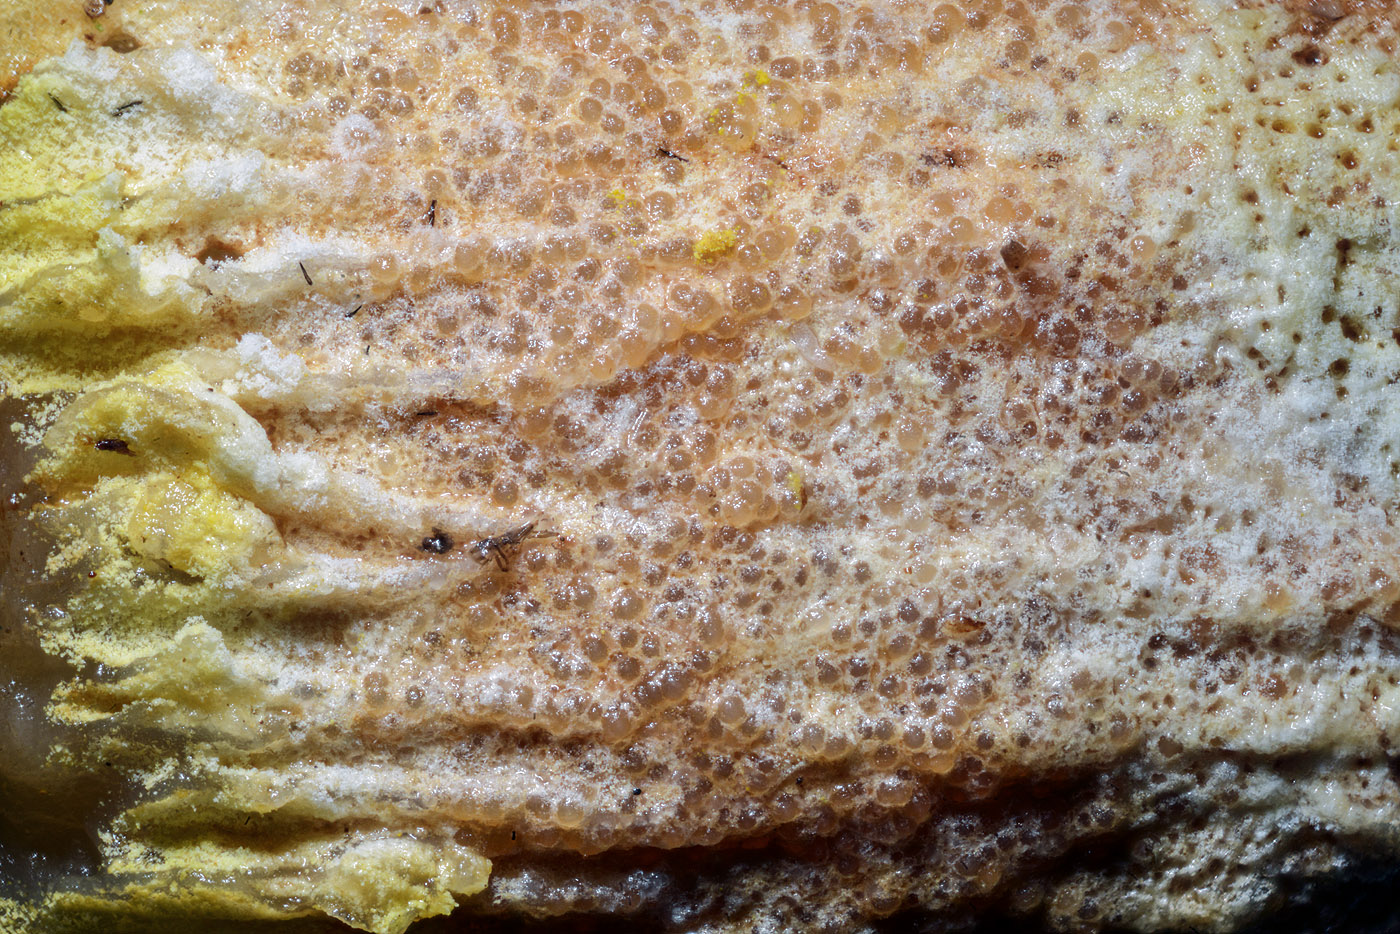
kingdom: Fungi
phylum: Ascomycota
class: Sordariomycetes
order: Hypocreales
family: Hypocreaceae
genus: Hypomyces
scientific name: Hypomyces chrysospermus
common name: gulskimmel-snylteskorpe
